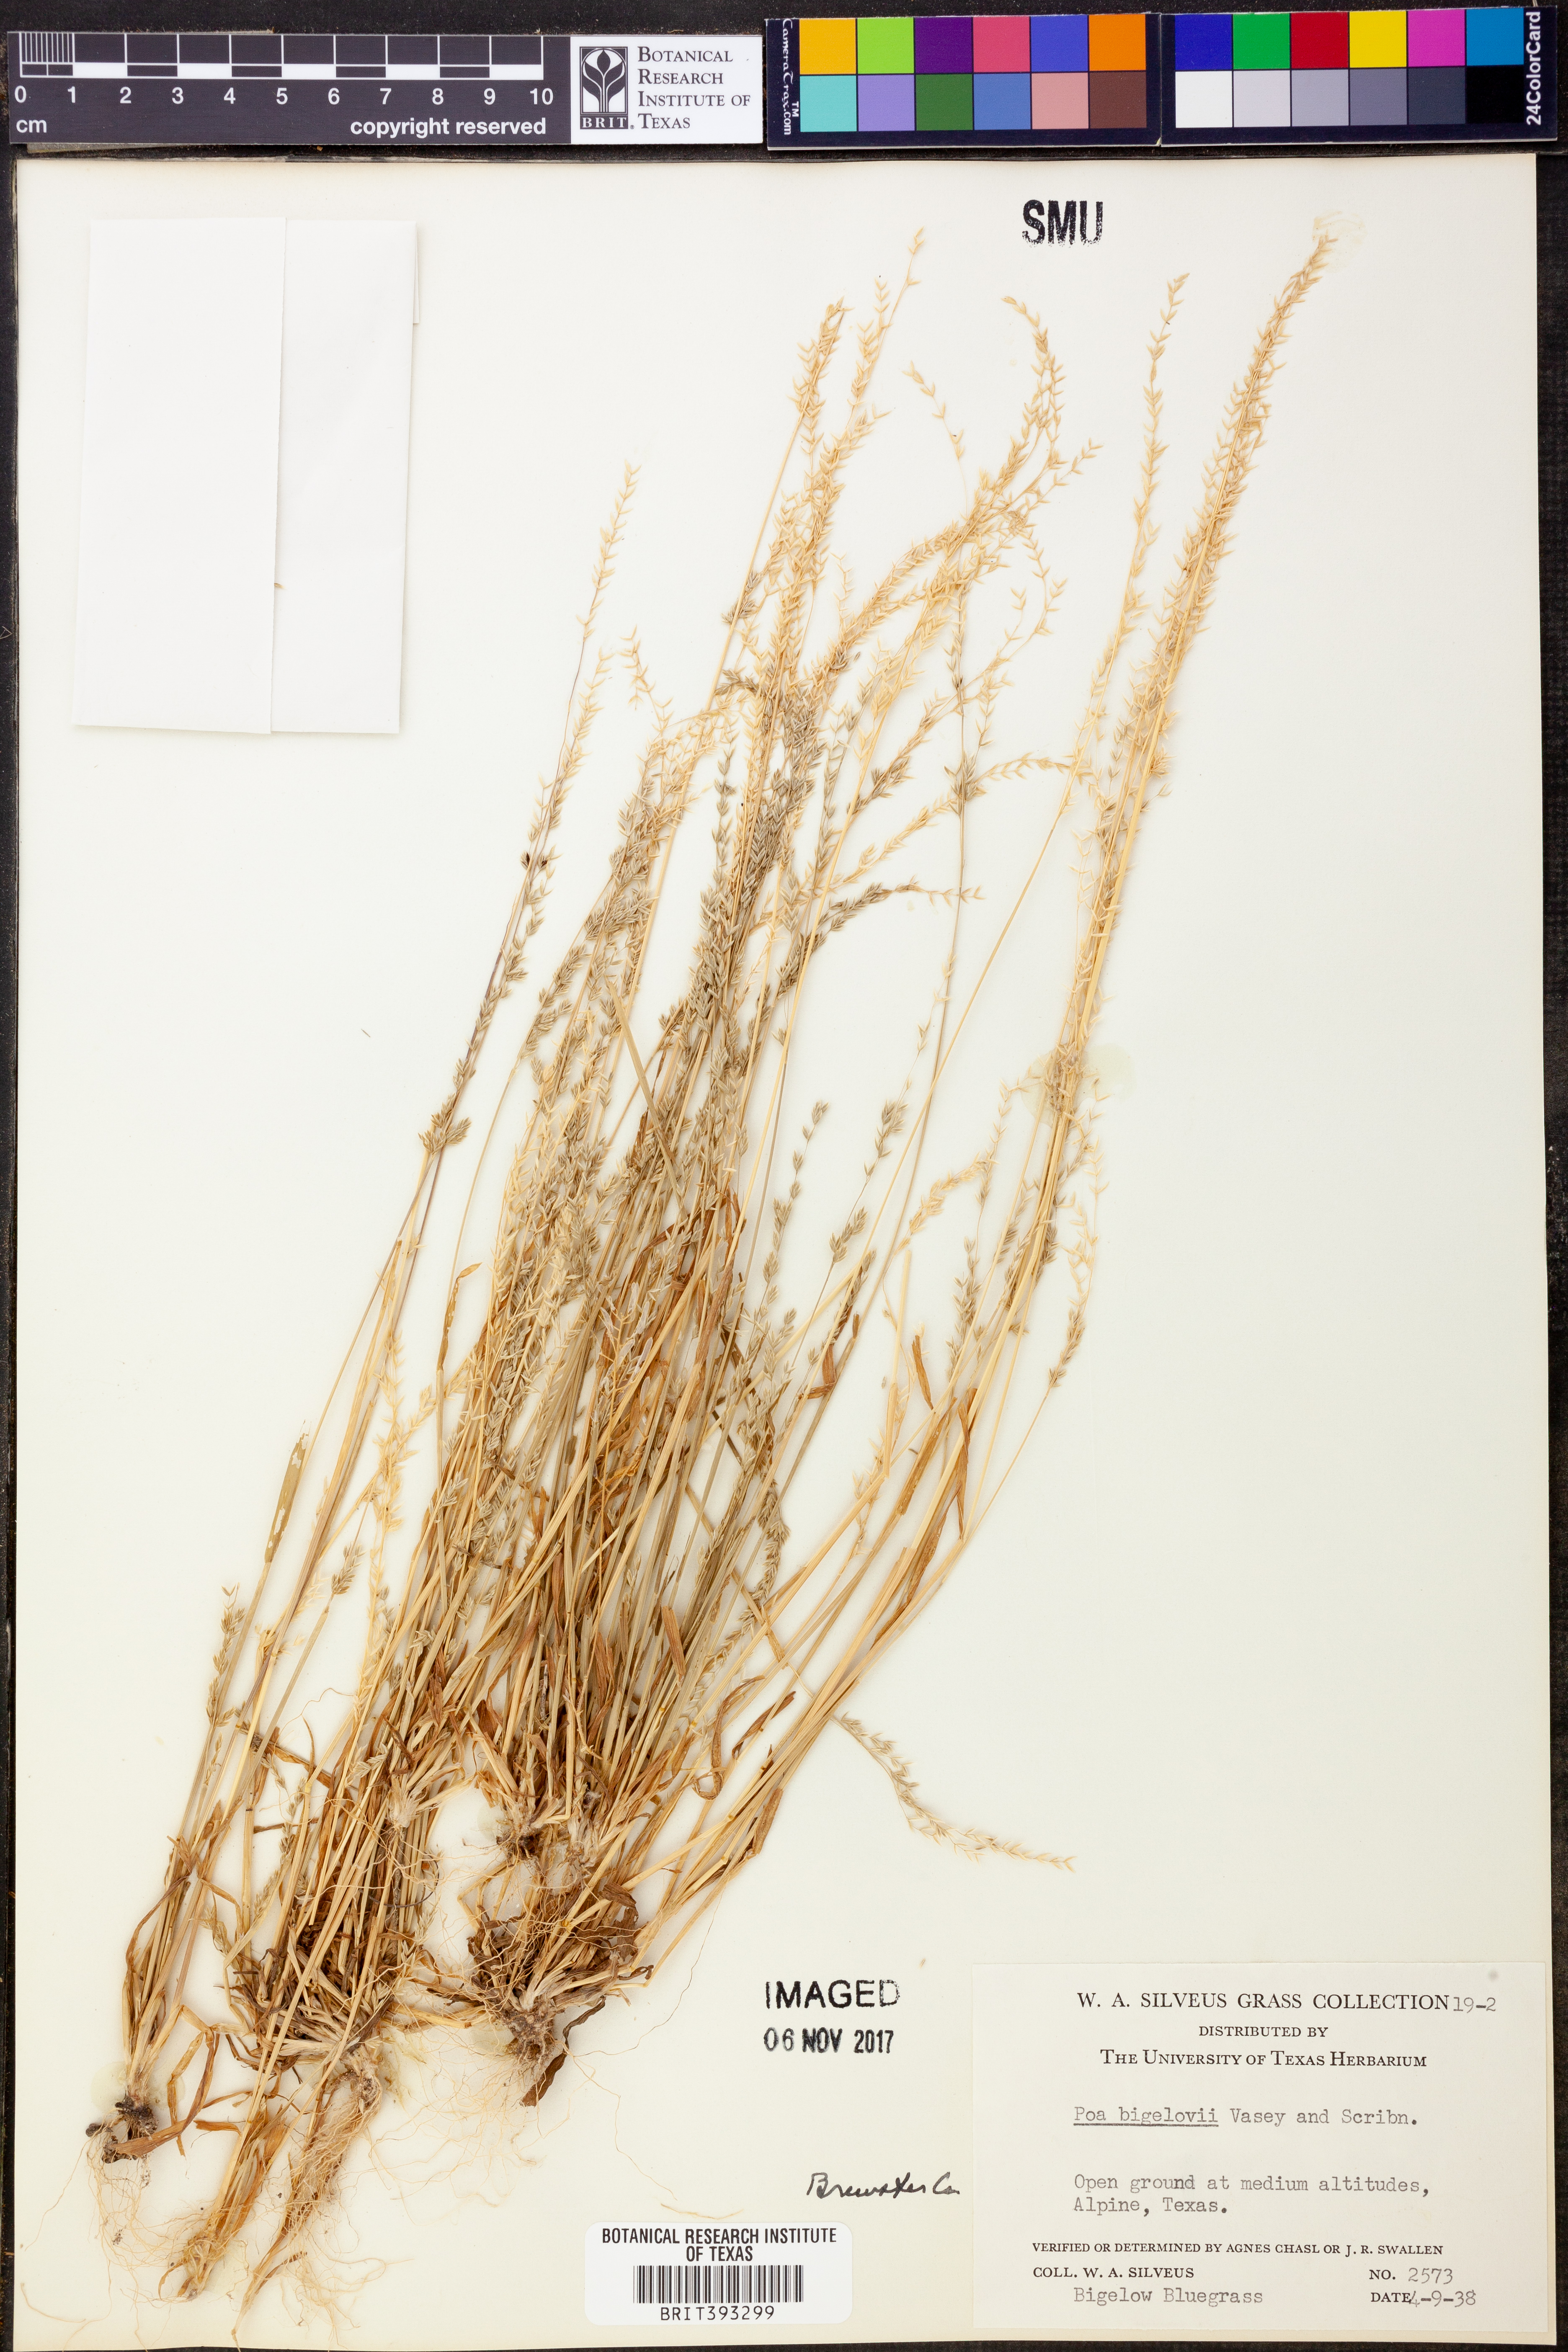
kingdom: Plantae
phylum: Tracheophyta
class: Liliopsida
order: Poales
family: Poaceae
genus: Poa
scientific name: Poa bigelovii
